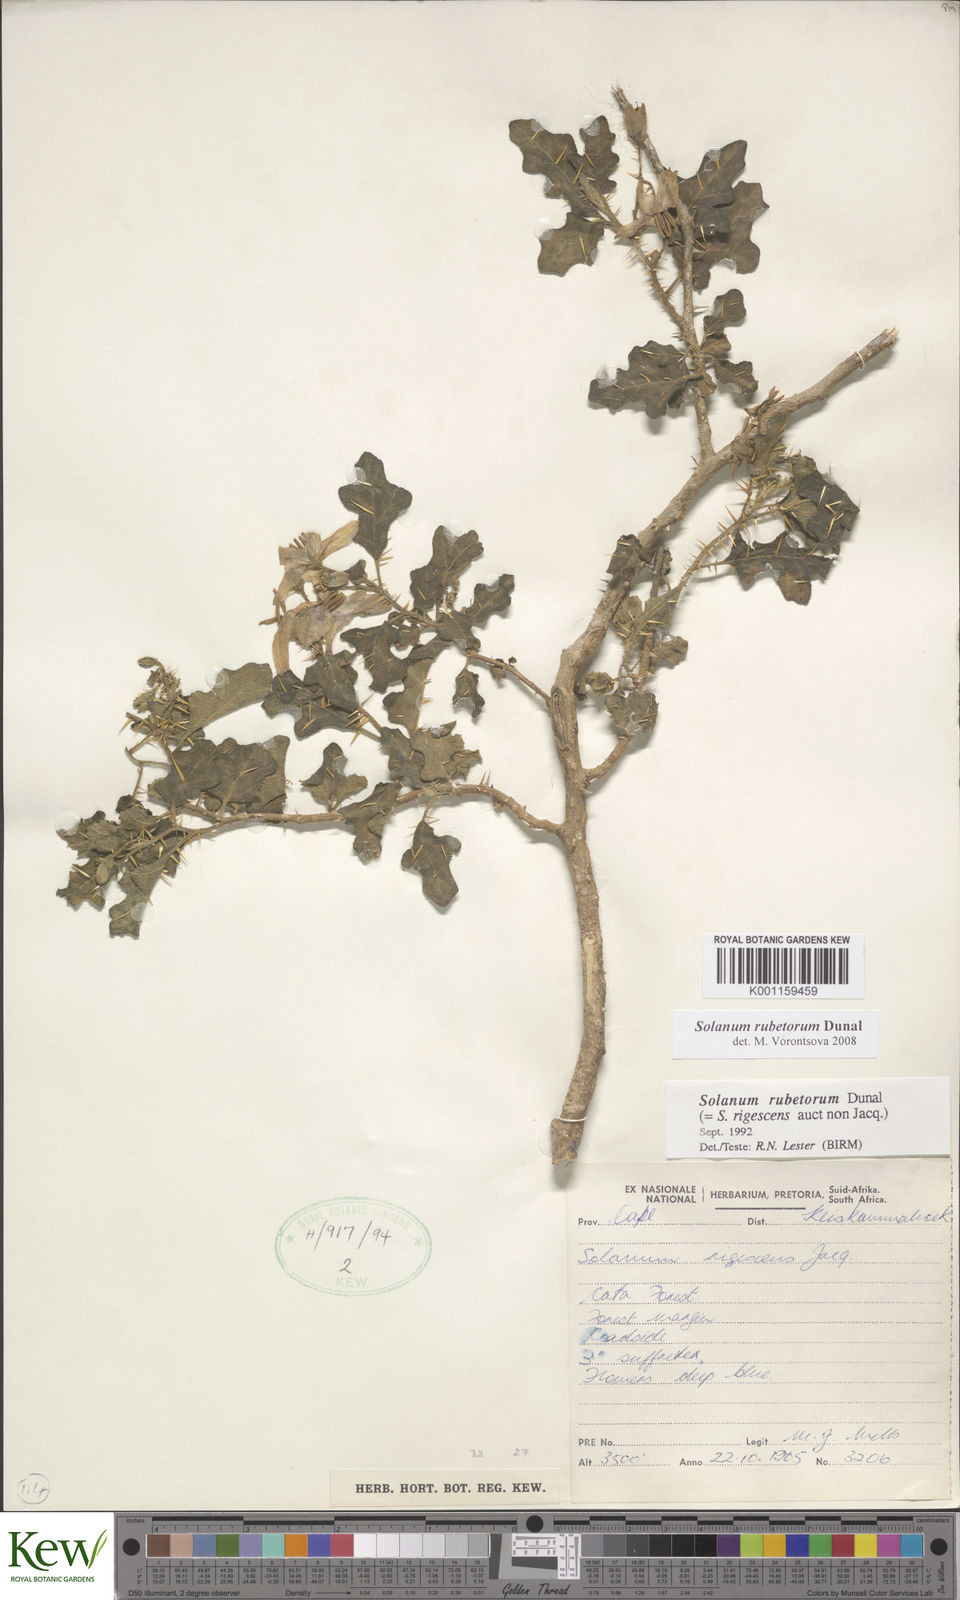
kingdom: Plantae
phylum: Tracheophyta
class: Magnoliopsida
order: Solanales
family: Solanaceae
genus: Solanum
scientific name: Solanum rubetorum
